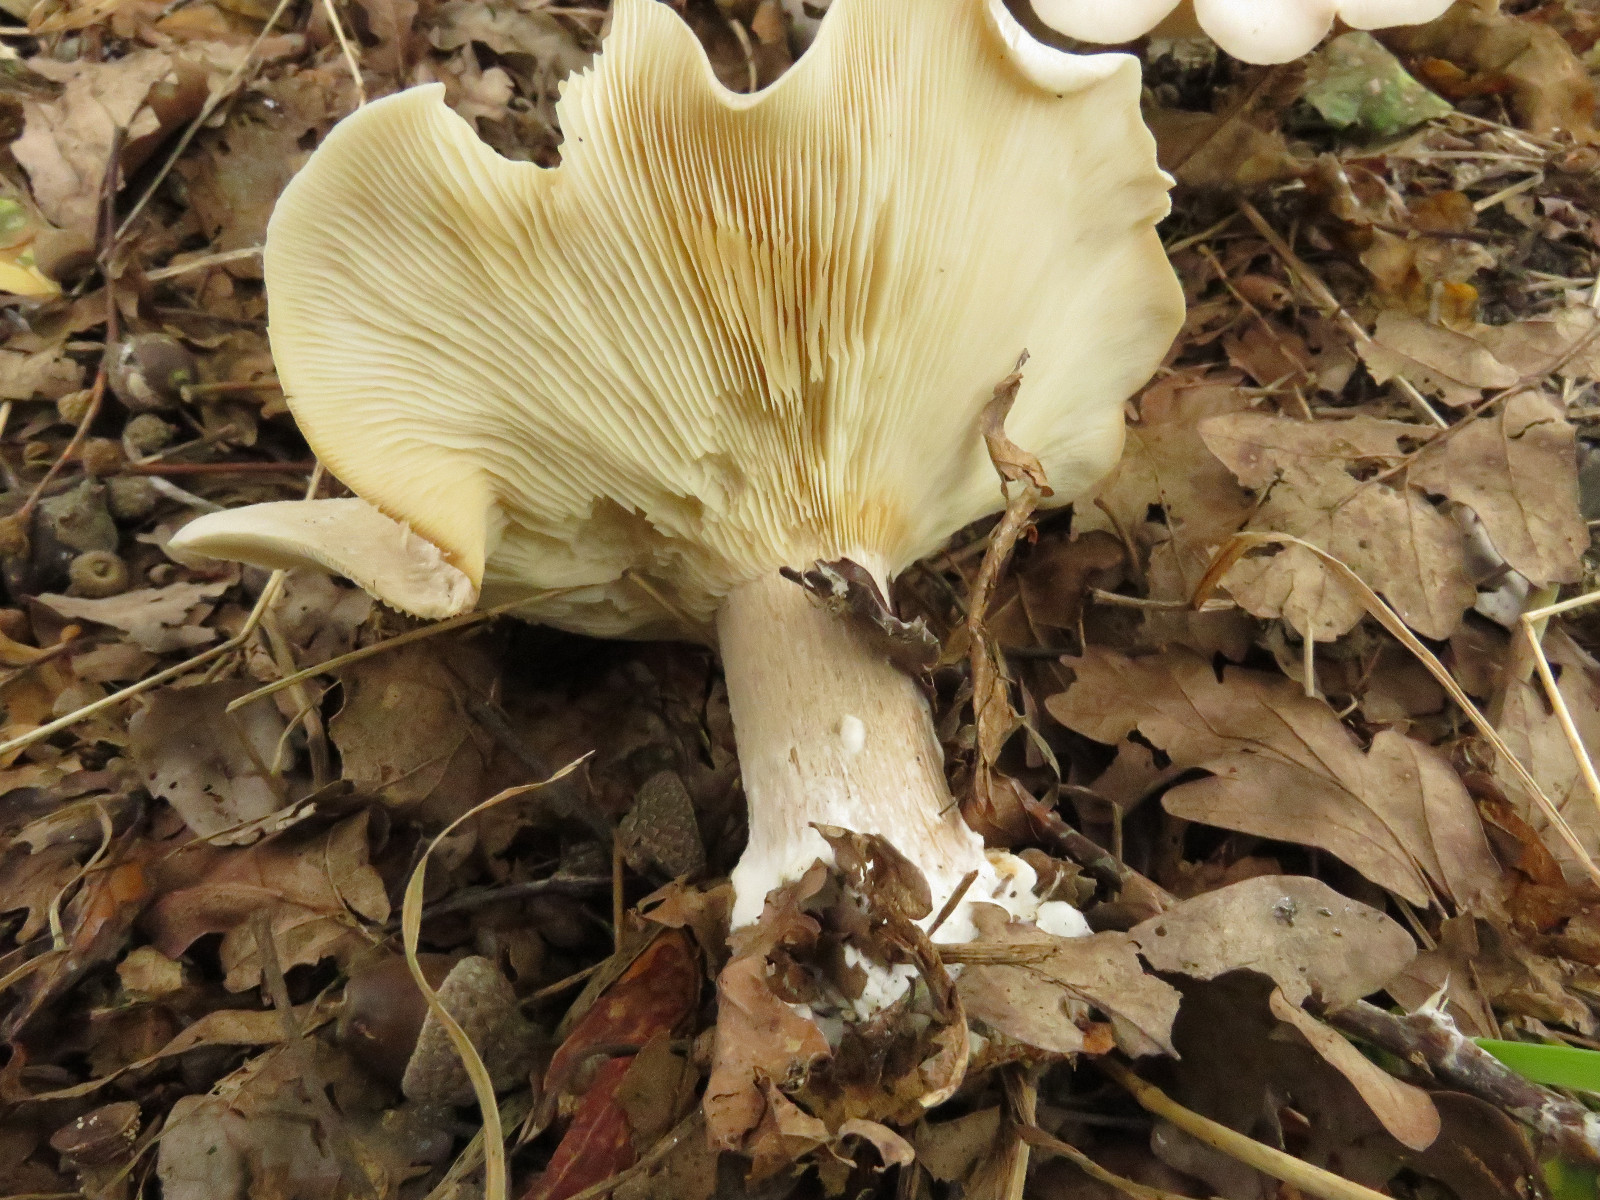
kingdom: Fungi
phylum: Basidiomycota
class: Agaricomycetes
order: Agaricales
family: Tricholomataceae
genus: Clitocybe
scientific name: Clitocybe nebularis
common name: tåge-tragthat
